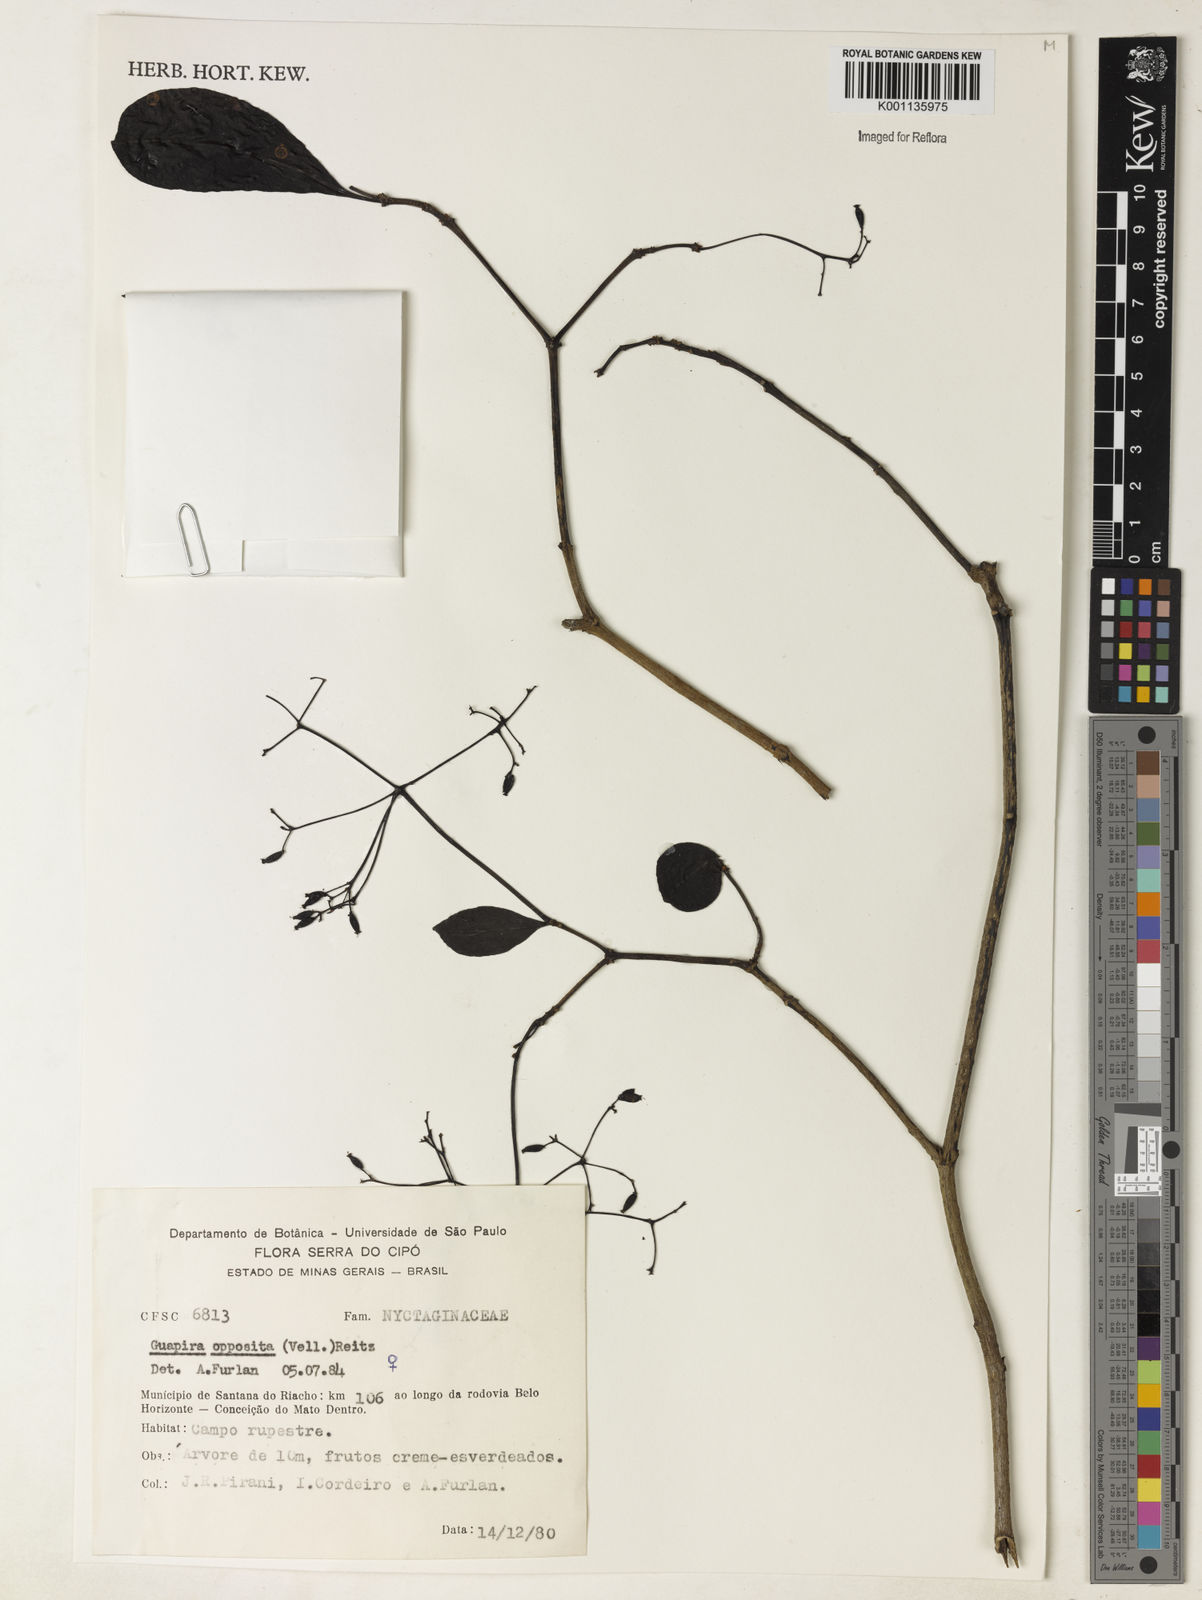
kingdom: Plantae
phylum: Tracheophyta
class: Magnoliopsida
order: Caryophyllales
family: Nyctaginaceae
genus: Guapira
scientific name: Guapira opposita
